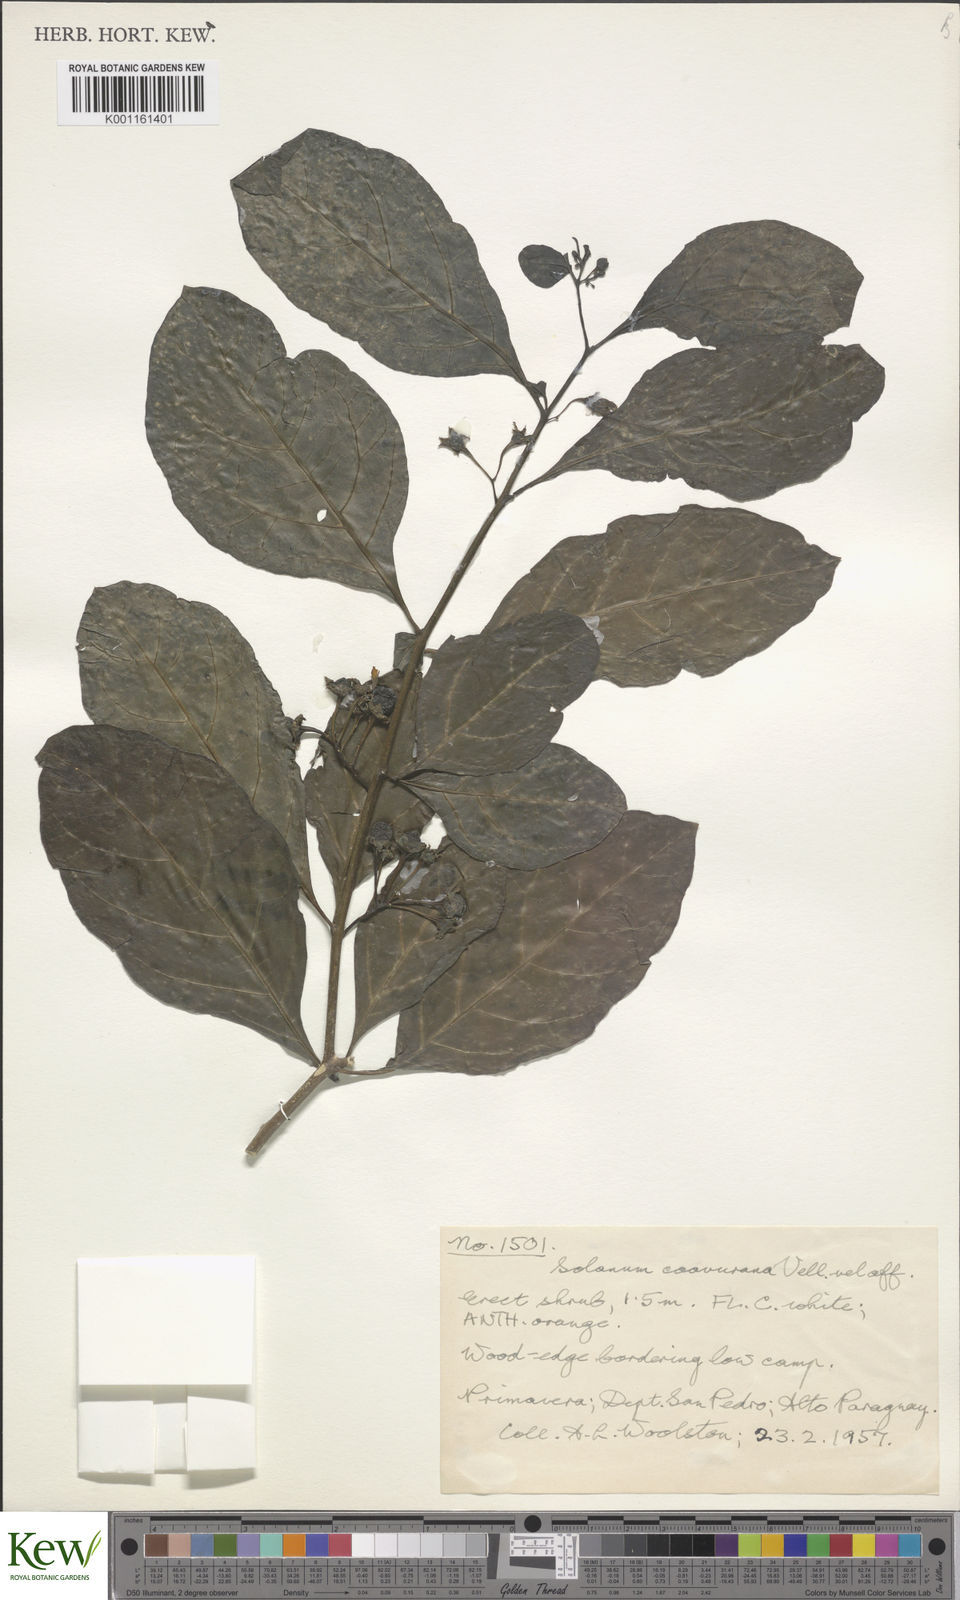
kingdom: Plantae
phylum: Tracheophyta
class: Magnoliopsida
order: Solanales
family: Solanaceae
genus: Solanum
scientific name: Solanum caavurana
